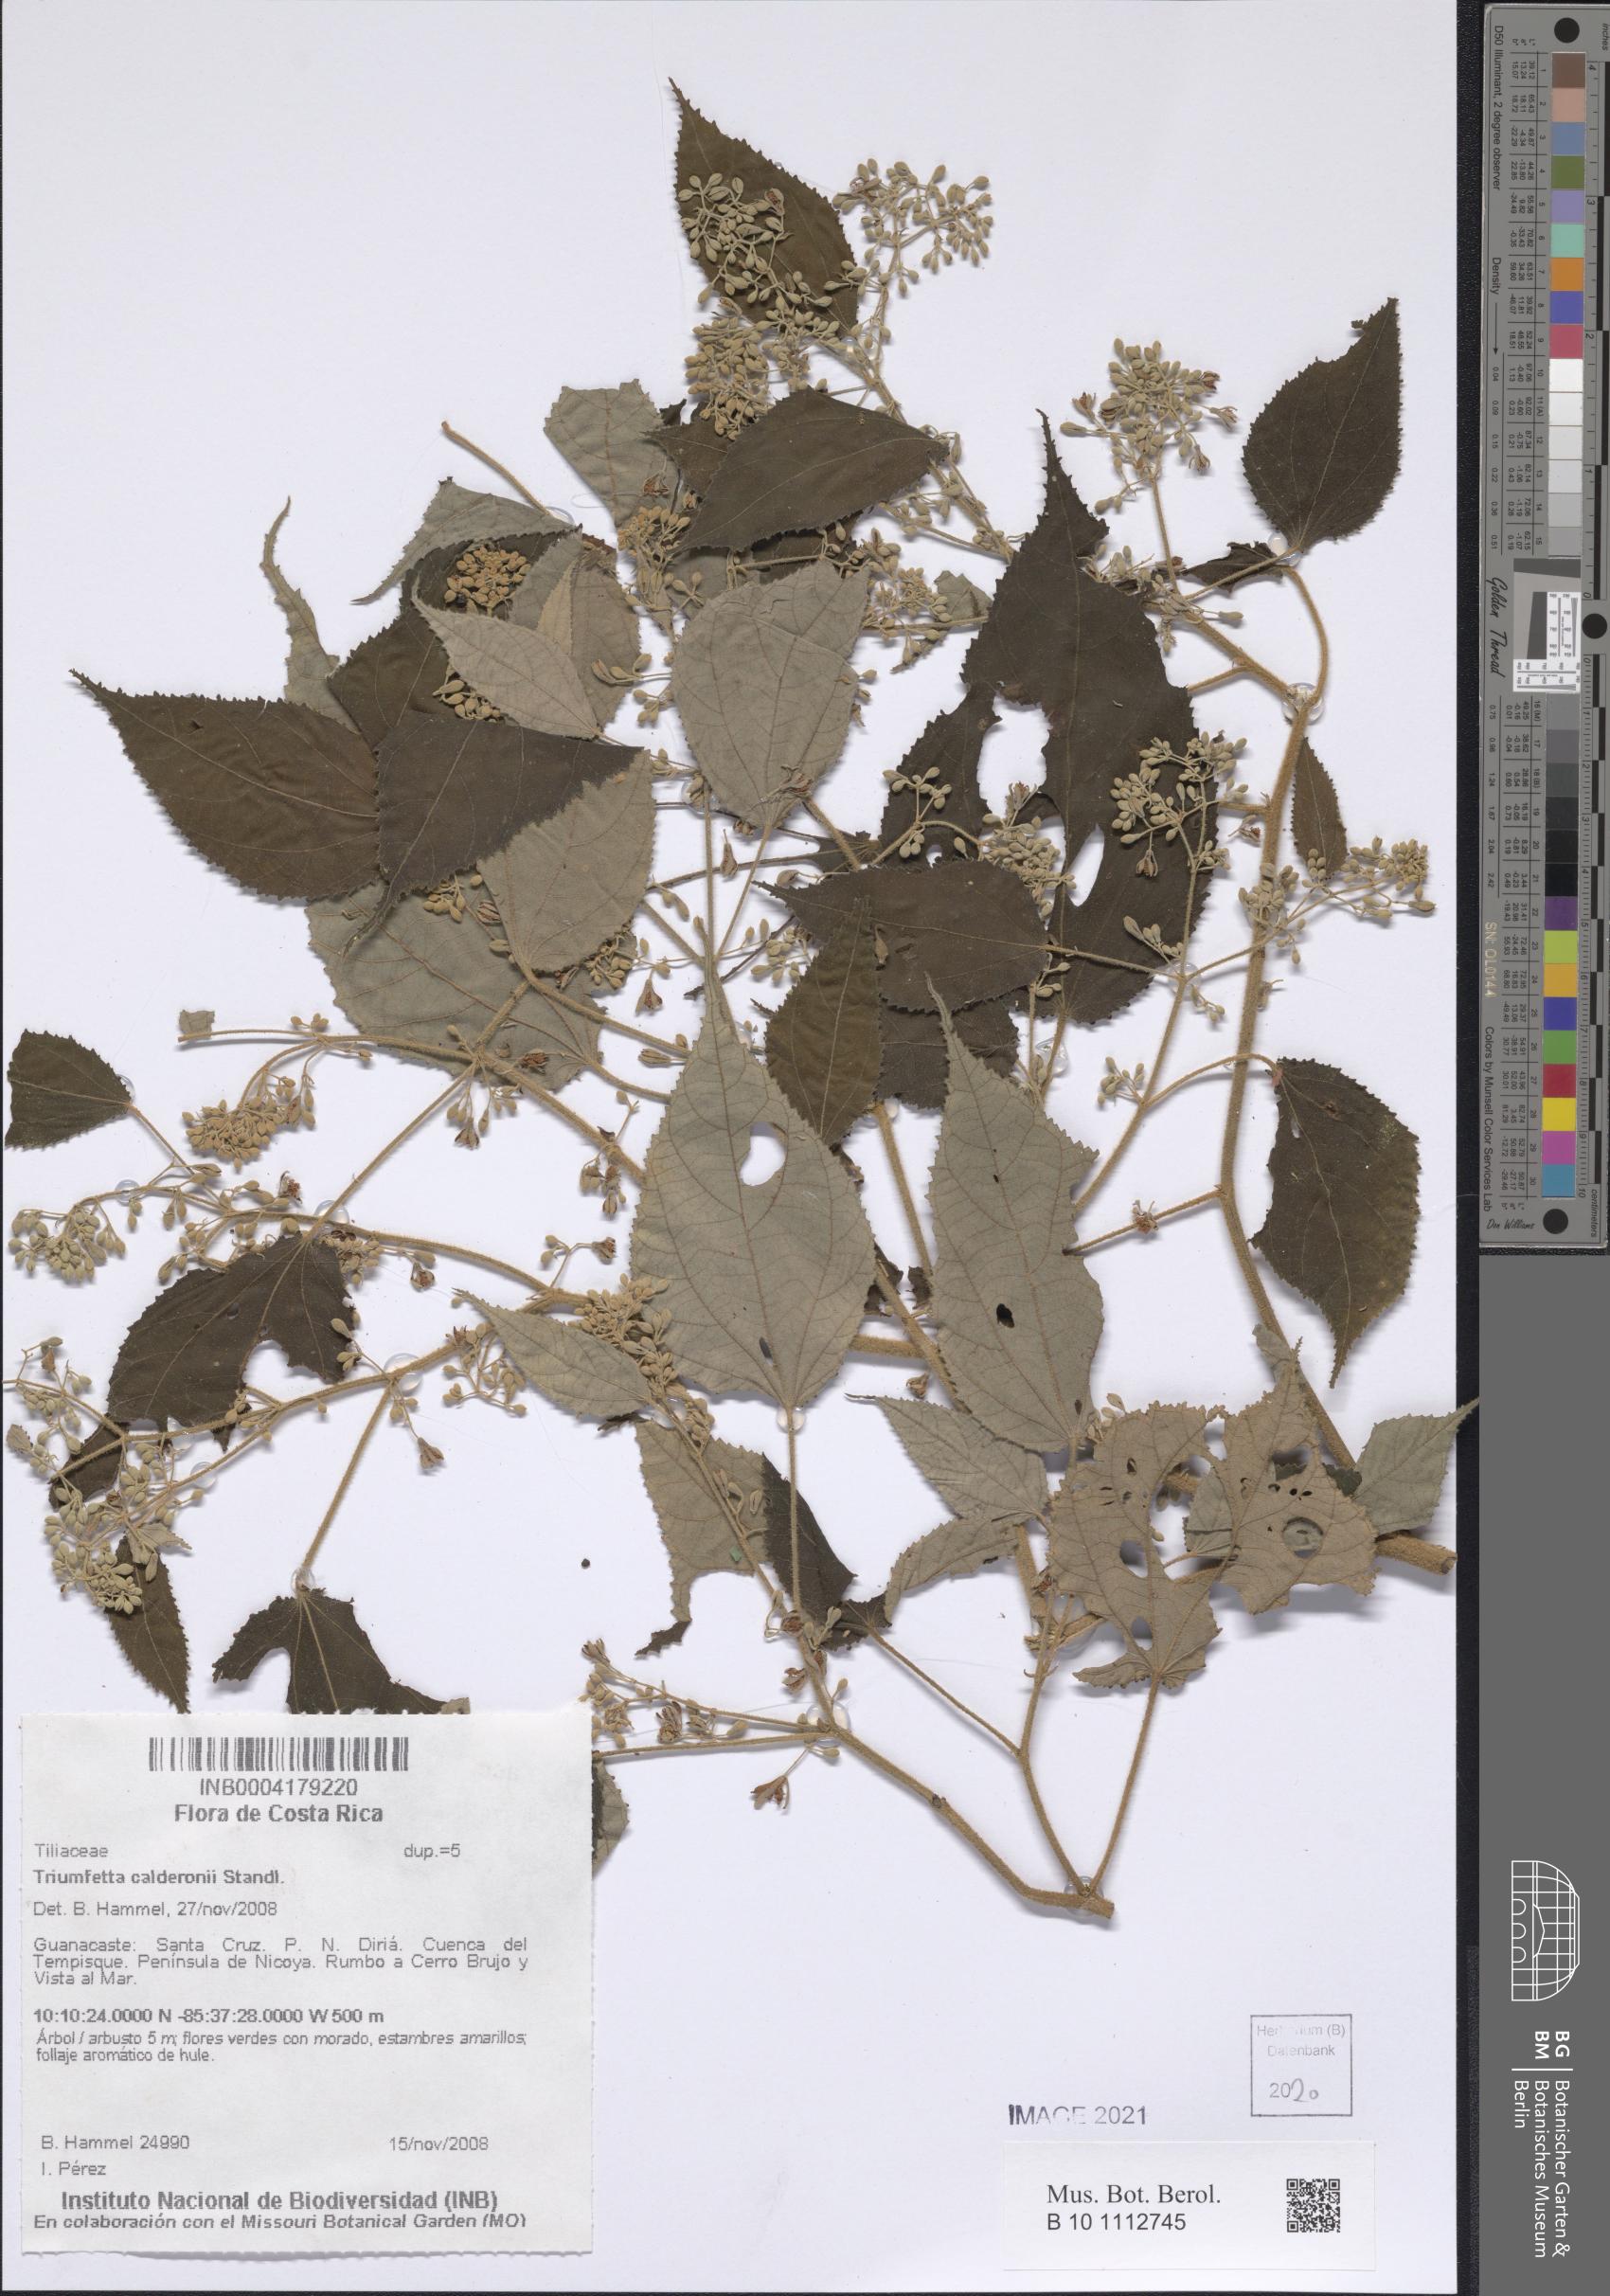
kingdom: Plantae
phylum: Tracheophyta
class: Magnoliopsida
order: Malvales
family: Malvaceae
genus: Triumfetta
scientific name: Triumfetta calderonii
